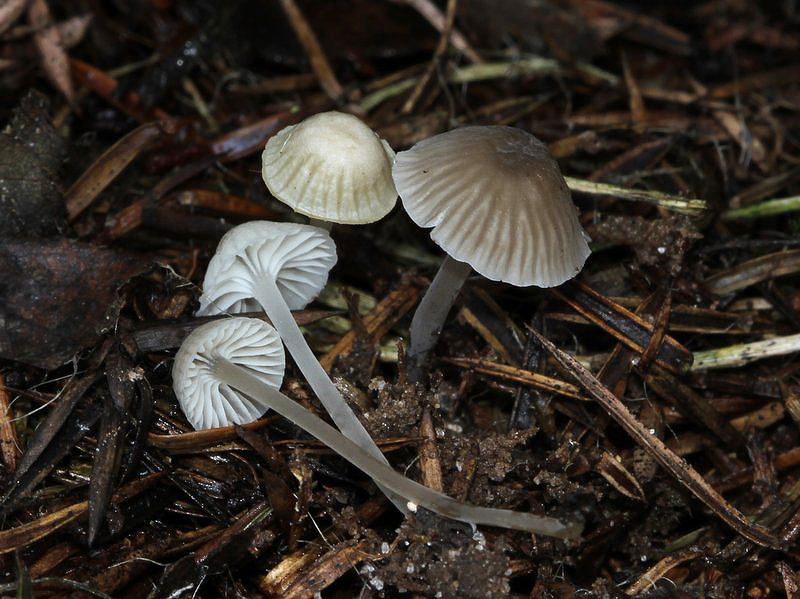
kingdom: Fungi
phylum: Basidiomycota
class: Agaricomycetes
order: Agaricales
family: Mycenaceae
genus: Mycena
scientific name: Mycena cinerella
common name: mel-huesvamp
